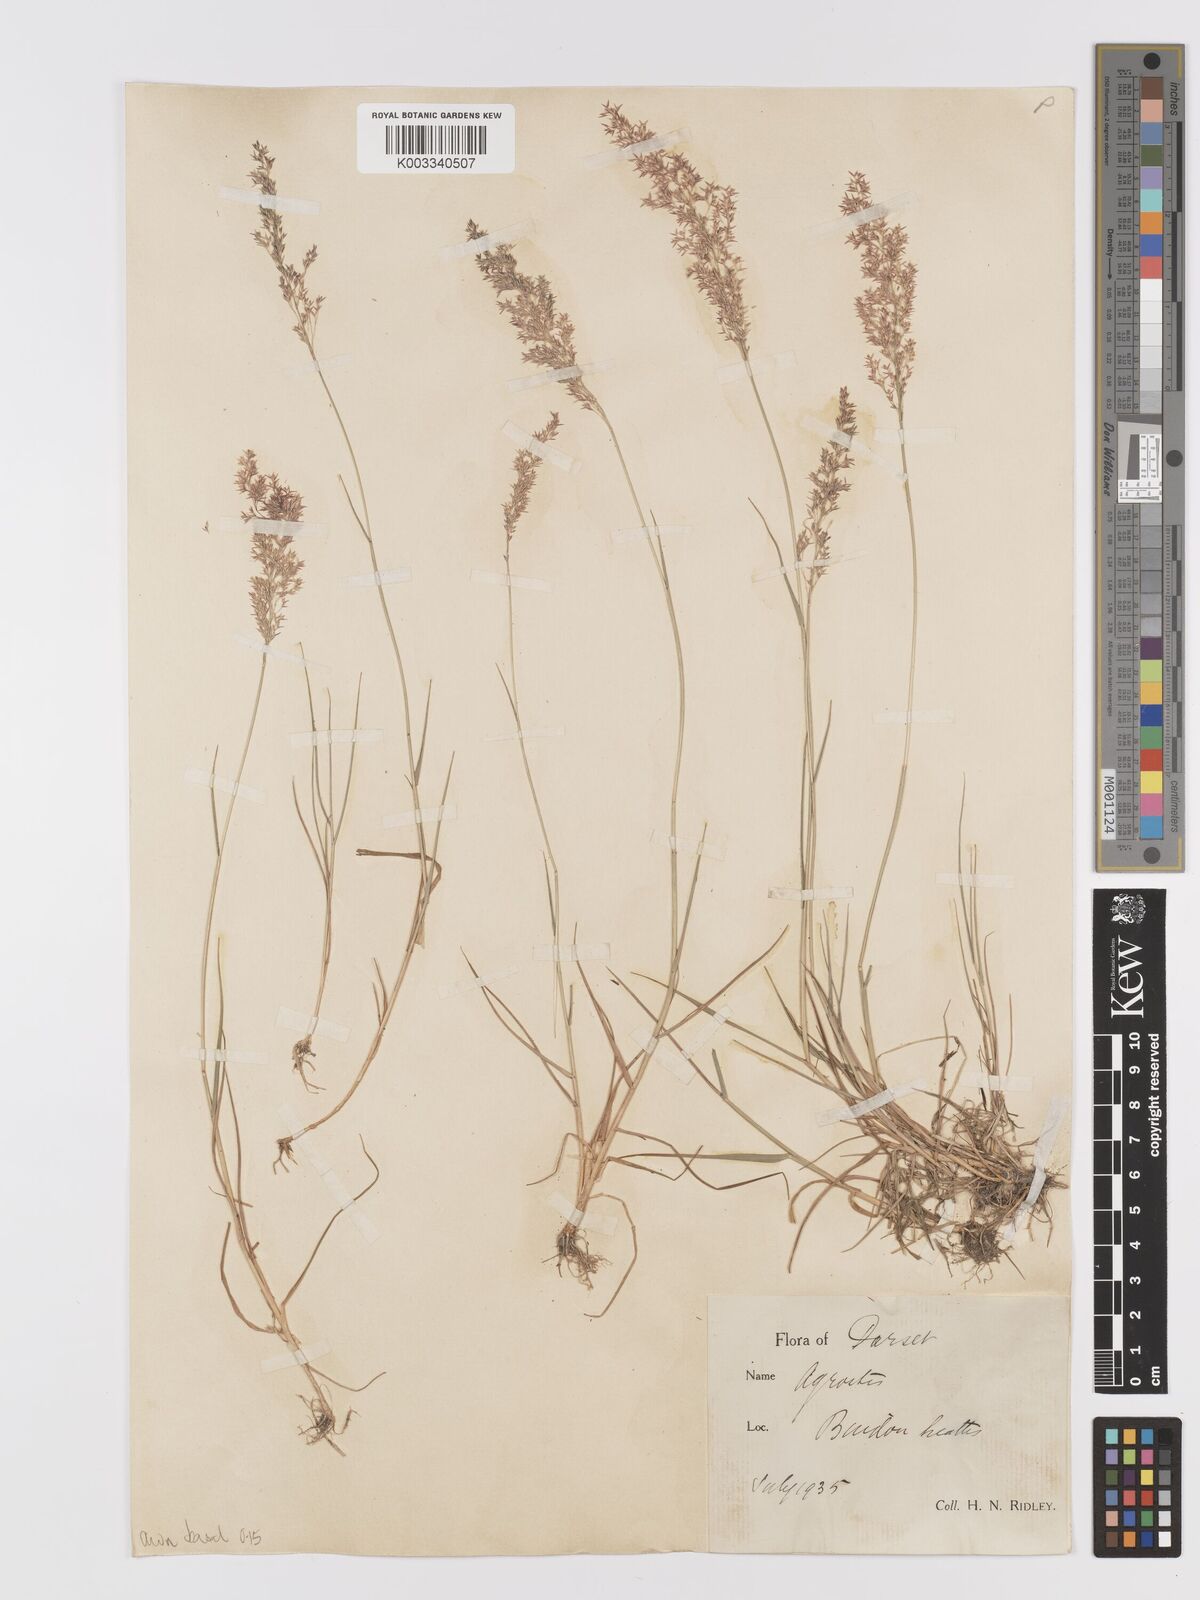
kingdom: Plantae
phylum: Tracheophyta
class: Liliopsida
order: Poales
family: Poaceae
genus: Agrostis
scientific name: Agrostis capillaris
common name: Colonial bentgrass
